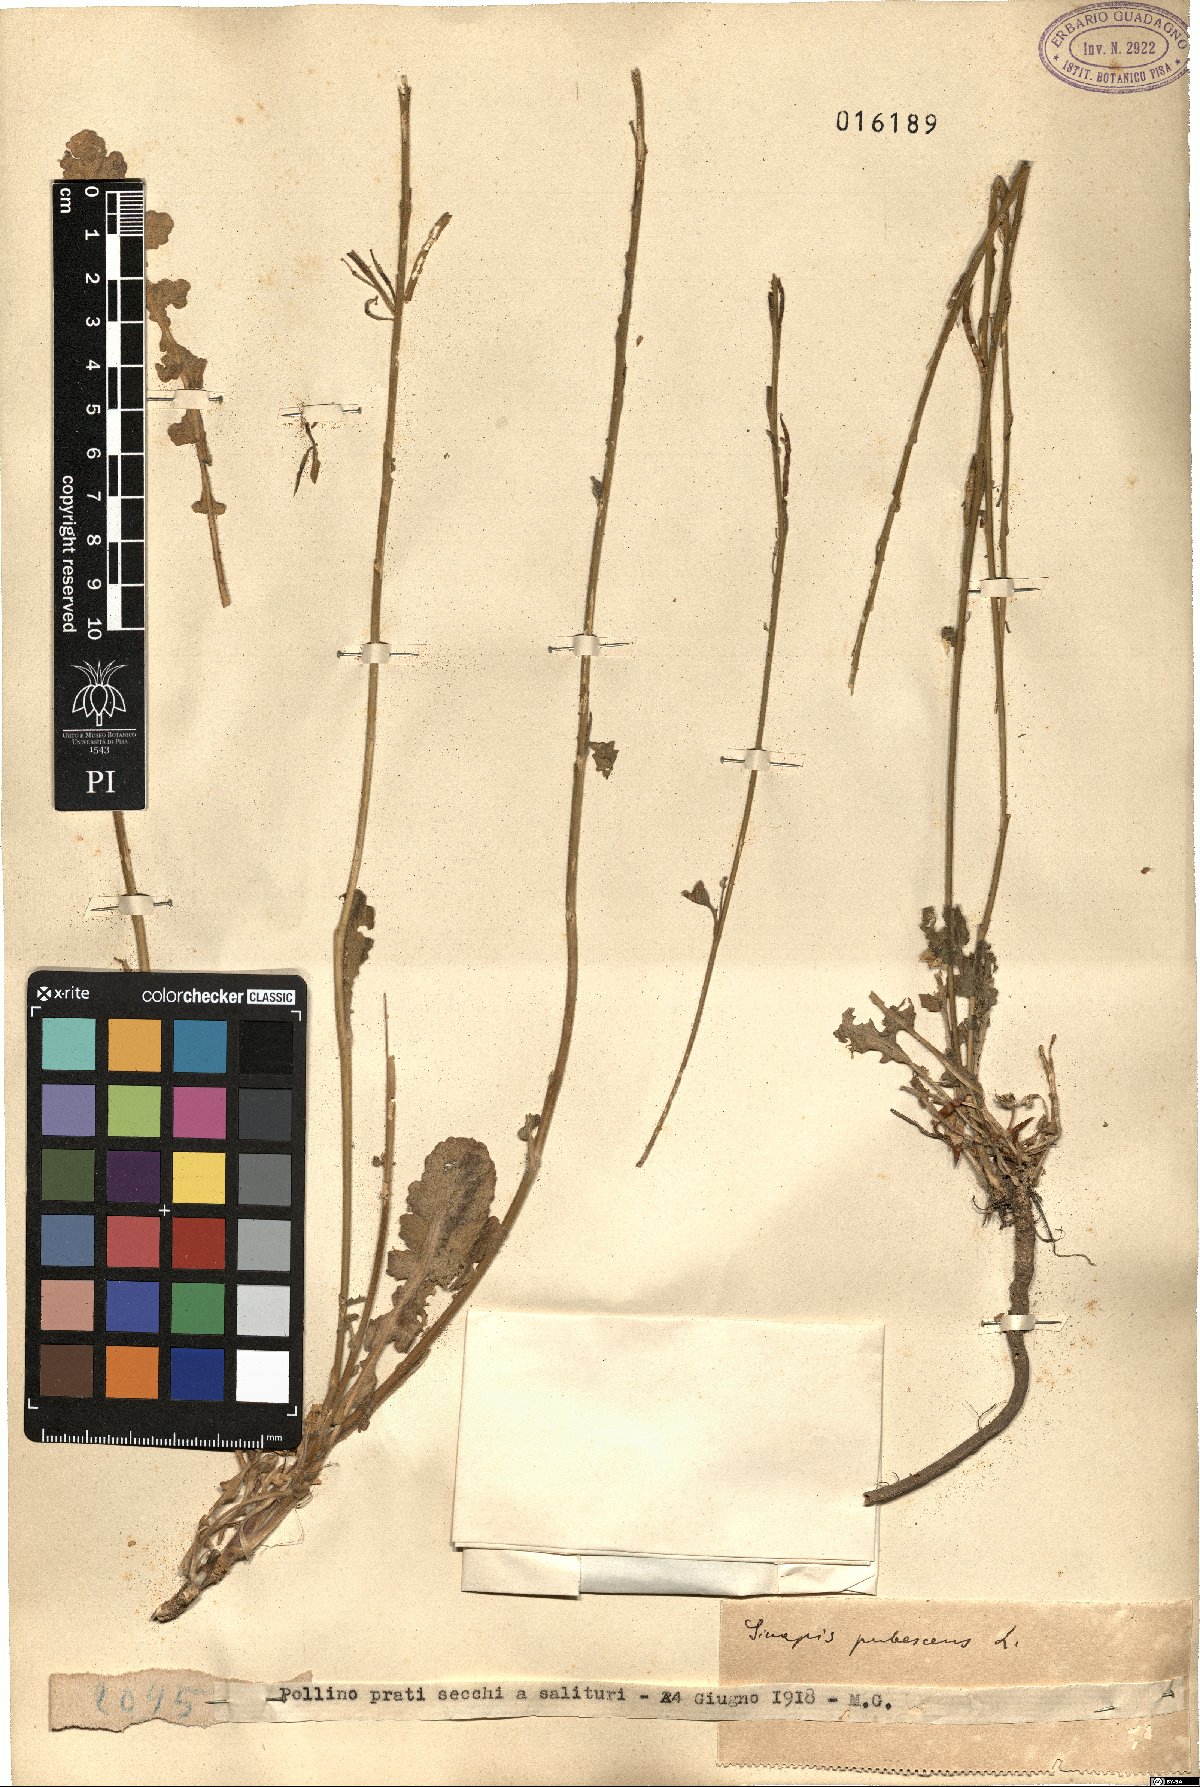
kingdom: Plantae
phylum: Tracheophyta
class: Magnoliopsida
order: Brassicales
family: Brassicaceae
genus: Sinapis
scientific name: Sinapis pubescens
